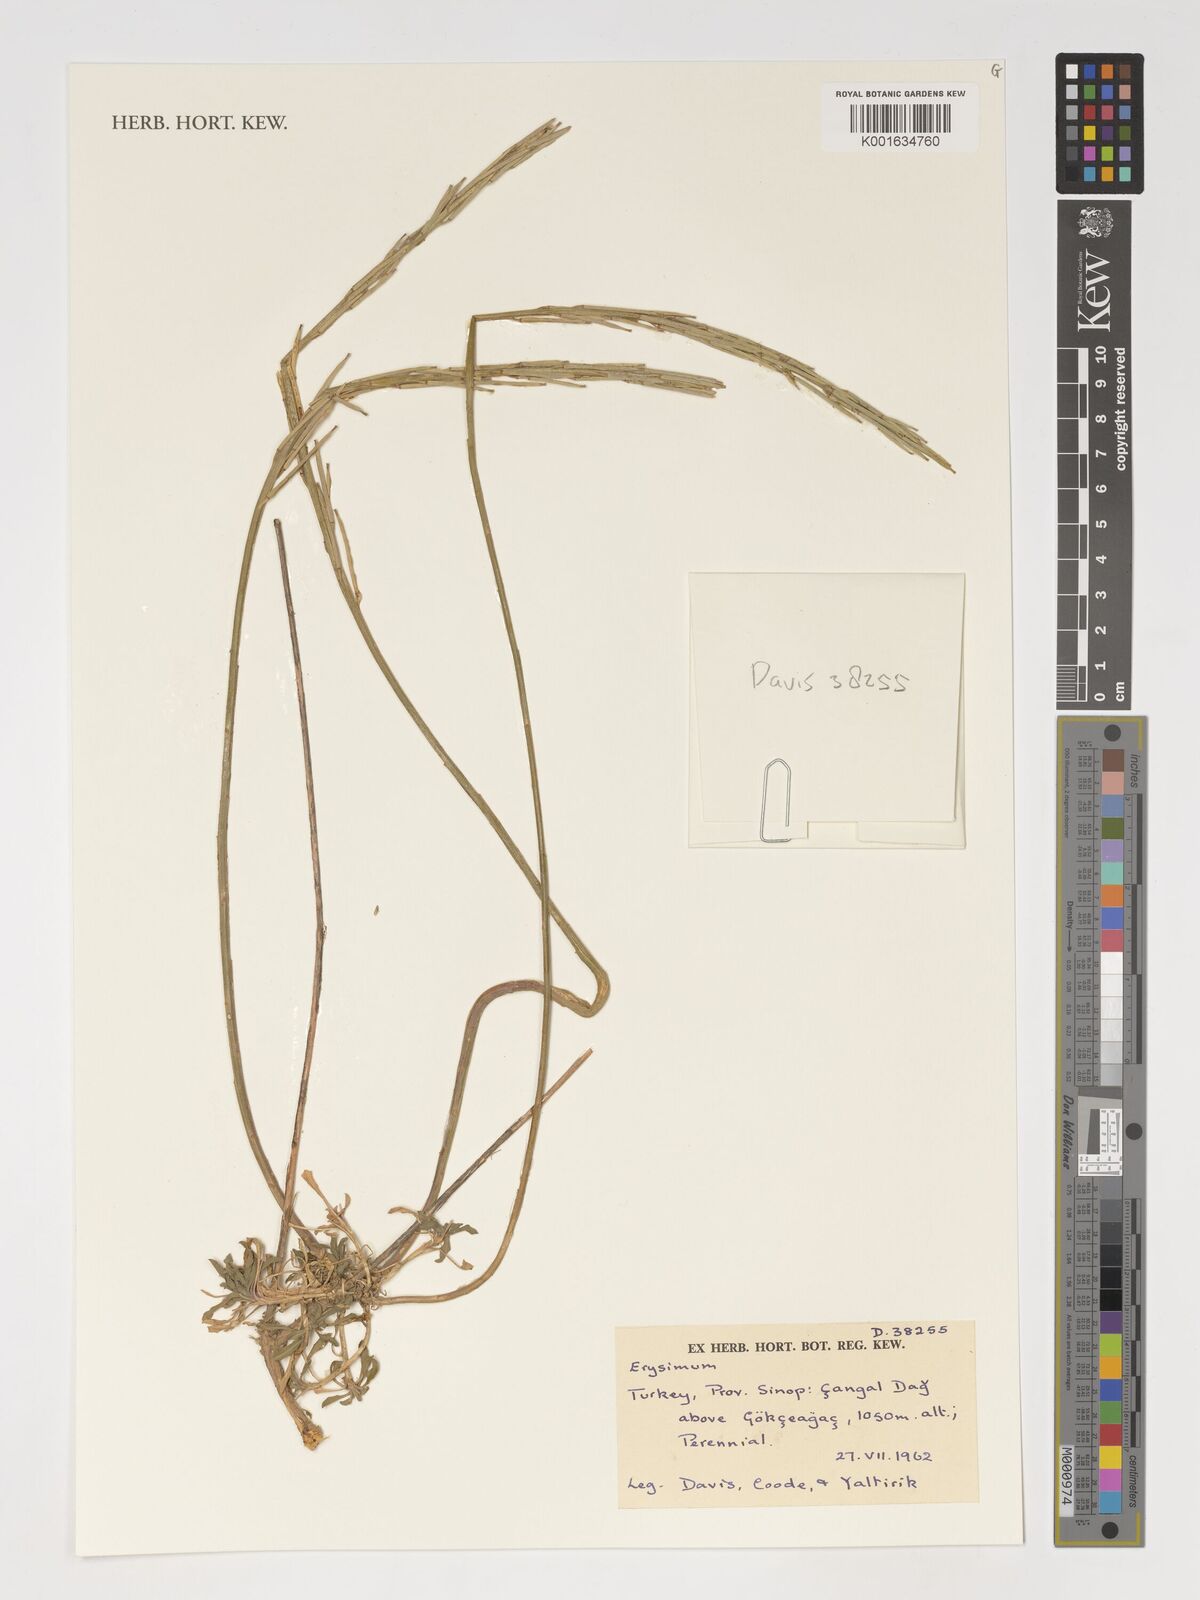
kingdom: Plantae
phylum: Tracheophyta
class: Magnoliopsida
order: Brassicales
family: Brassicaceae
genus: Erysimum
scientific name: Erysimum
